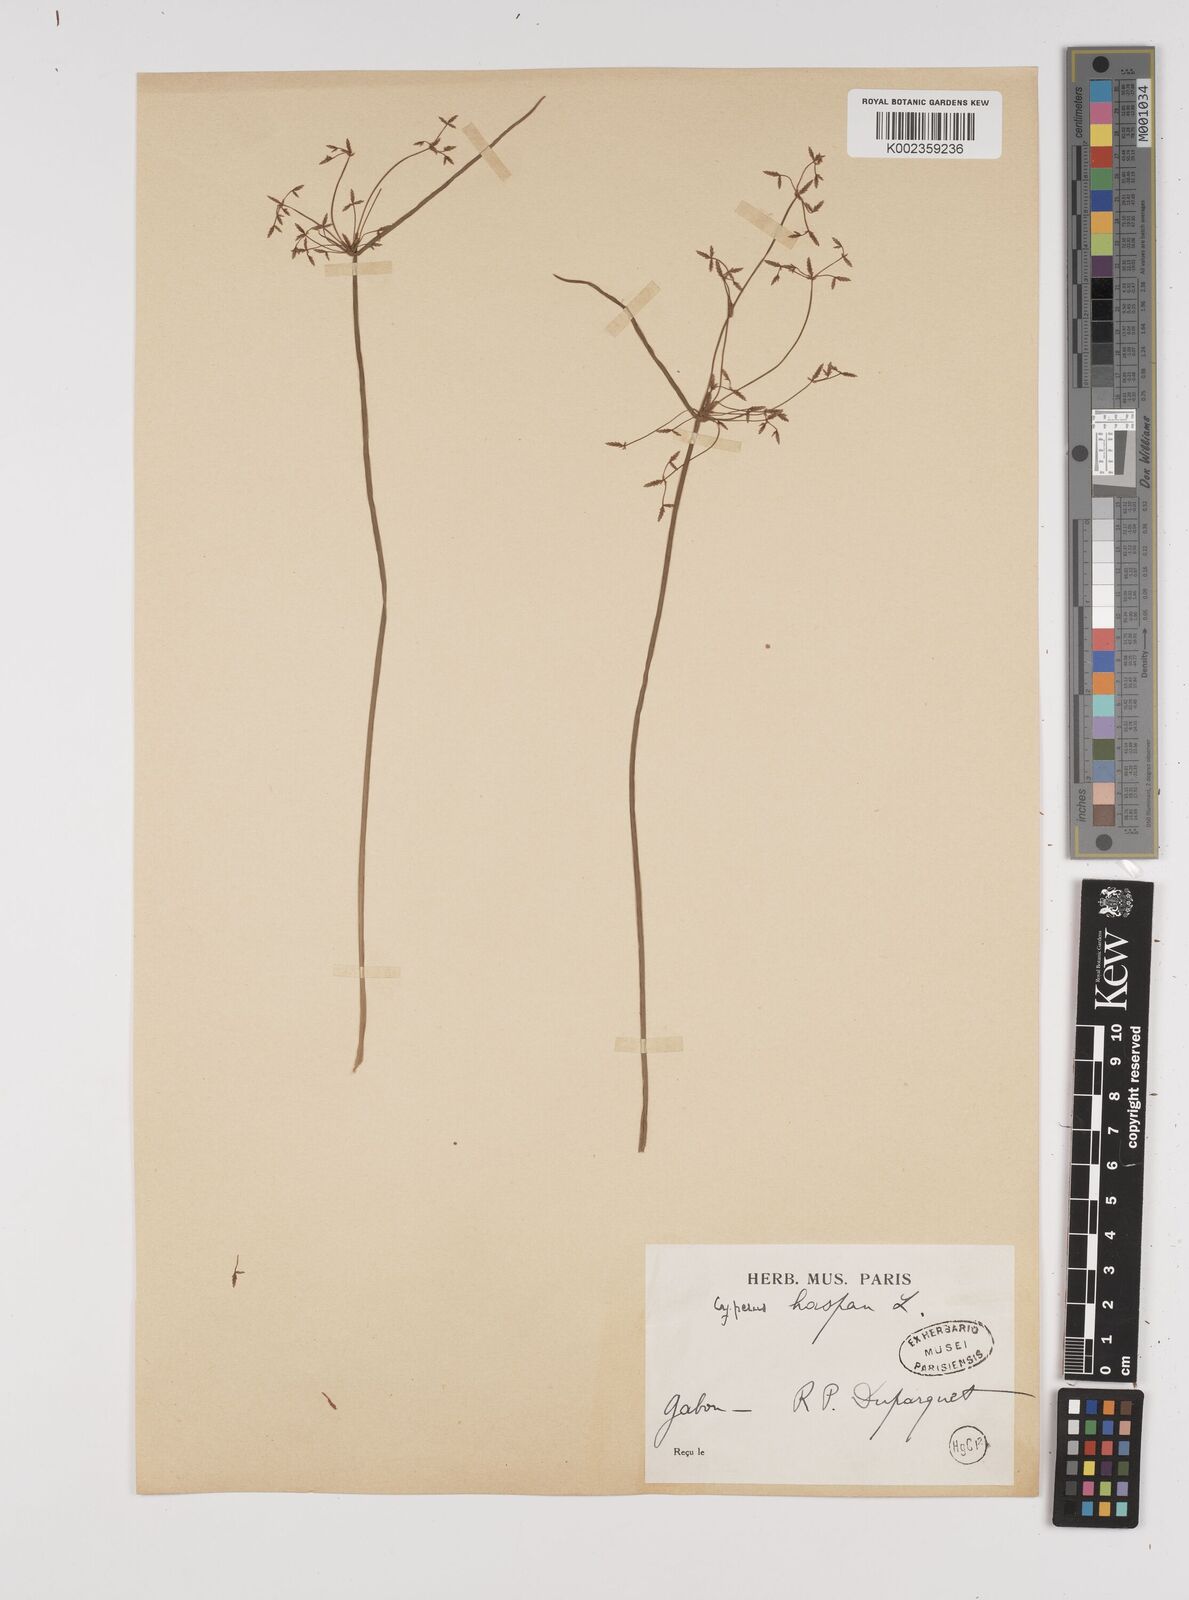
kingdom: Plantae
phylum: Tracheophyta
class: Liliopsida
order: Poales
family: Cyperaceae
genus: Cyperus
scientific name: Cyperus haspan
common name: Haspan flatsedge
